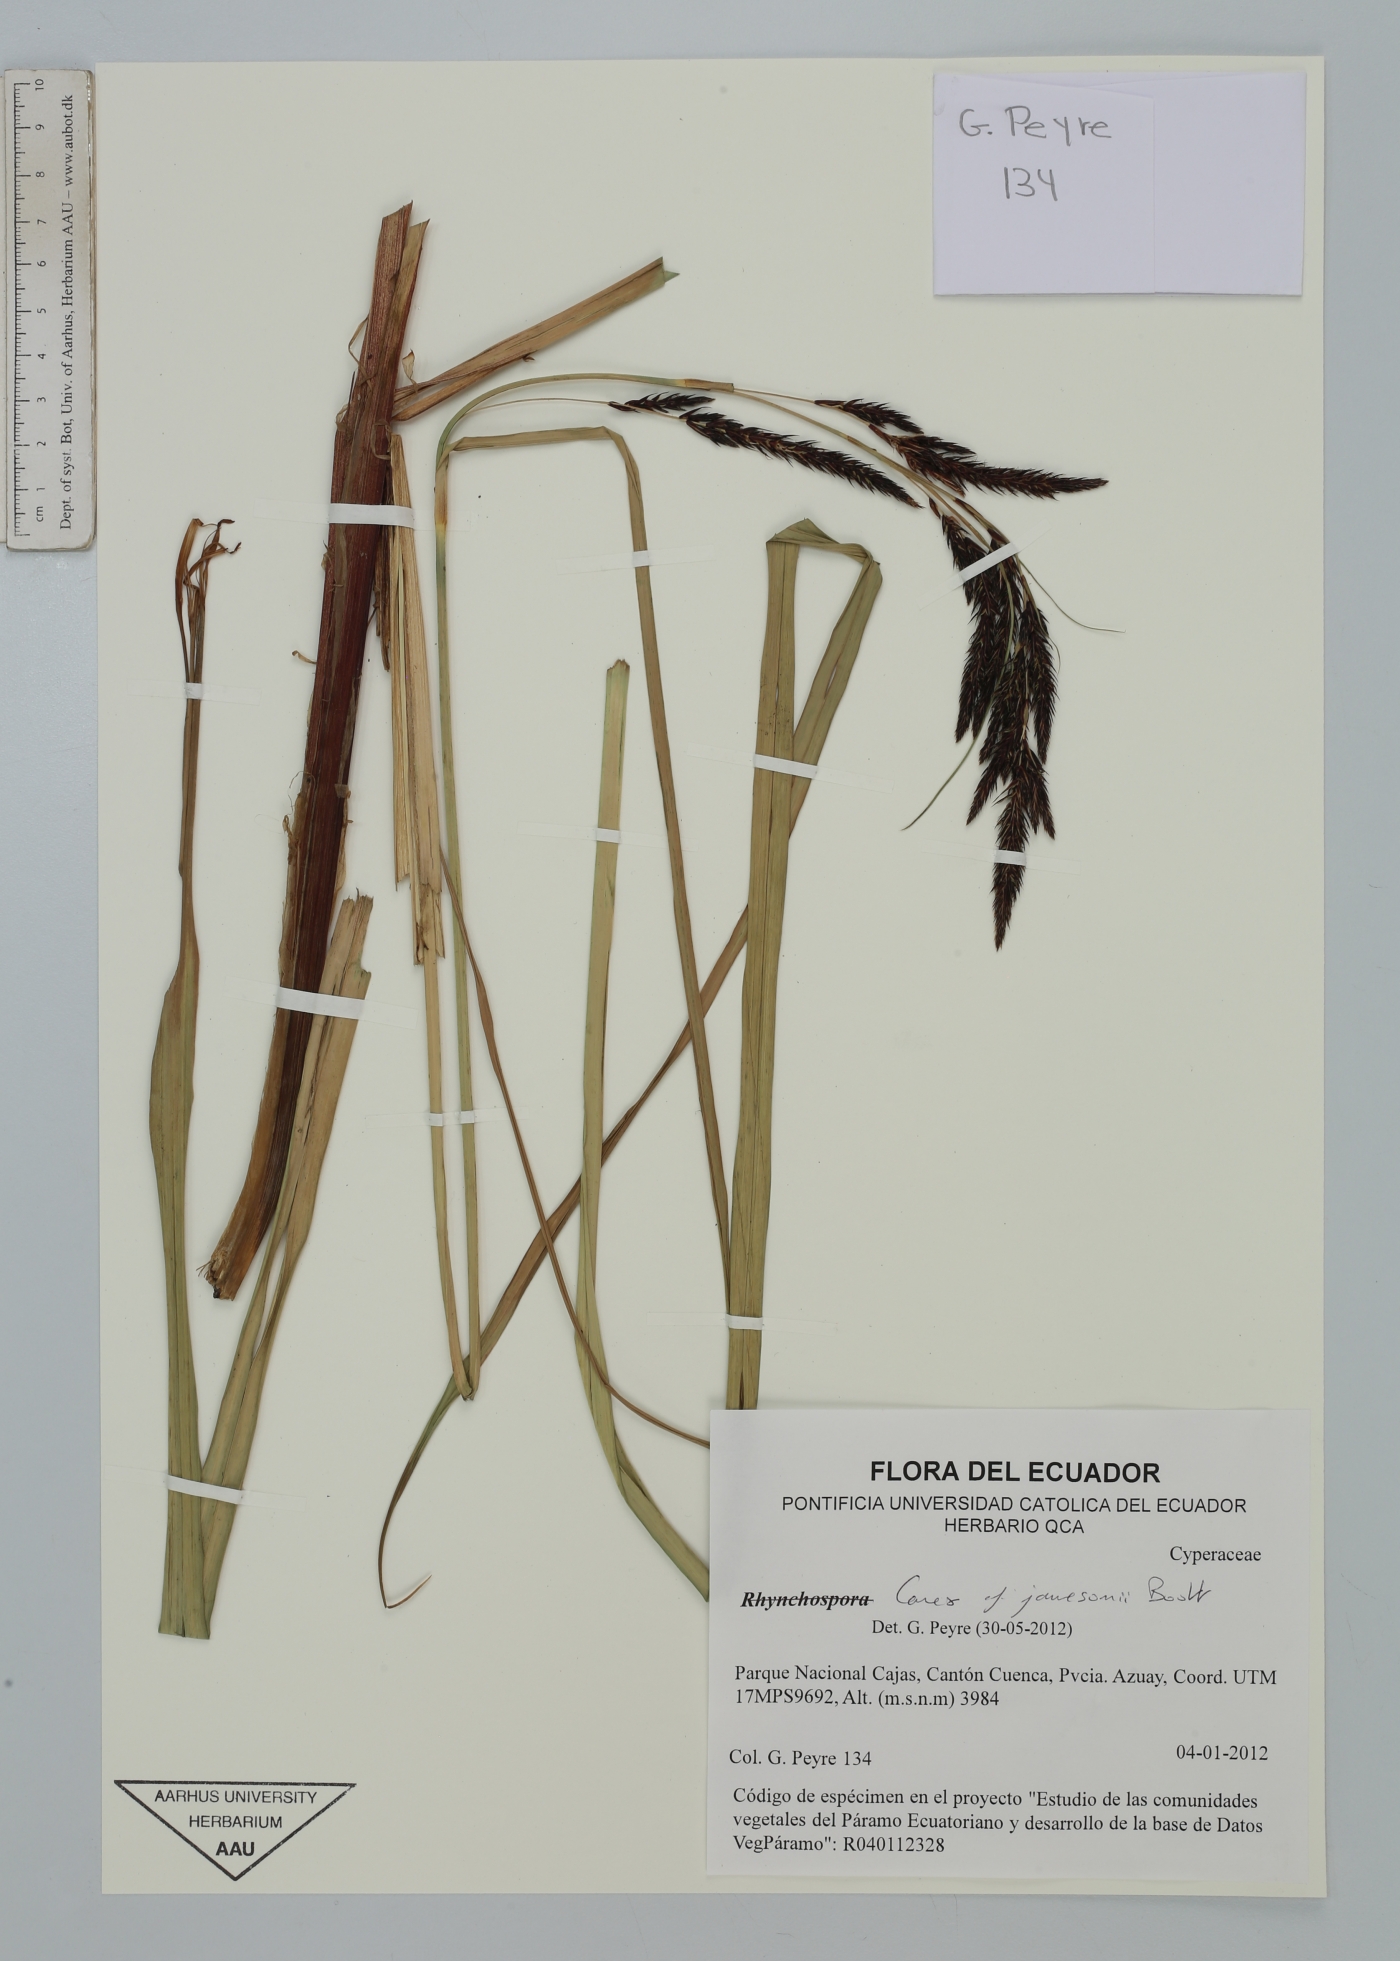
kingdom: Plantae
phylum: Tracheophyta
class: Liliopsida
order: Poales
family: Cyperaceae
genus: Carex
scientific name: Carex jamesonii
